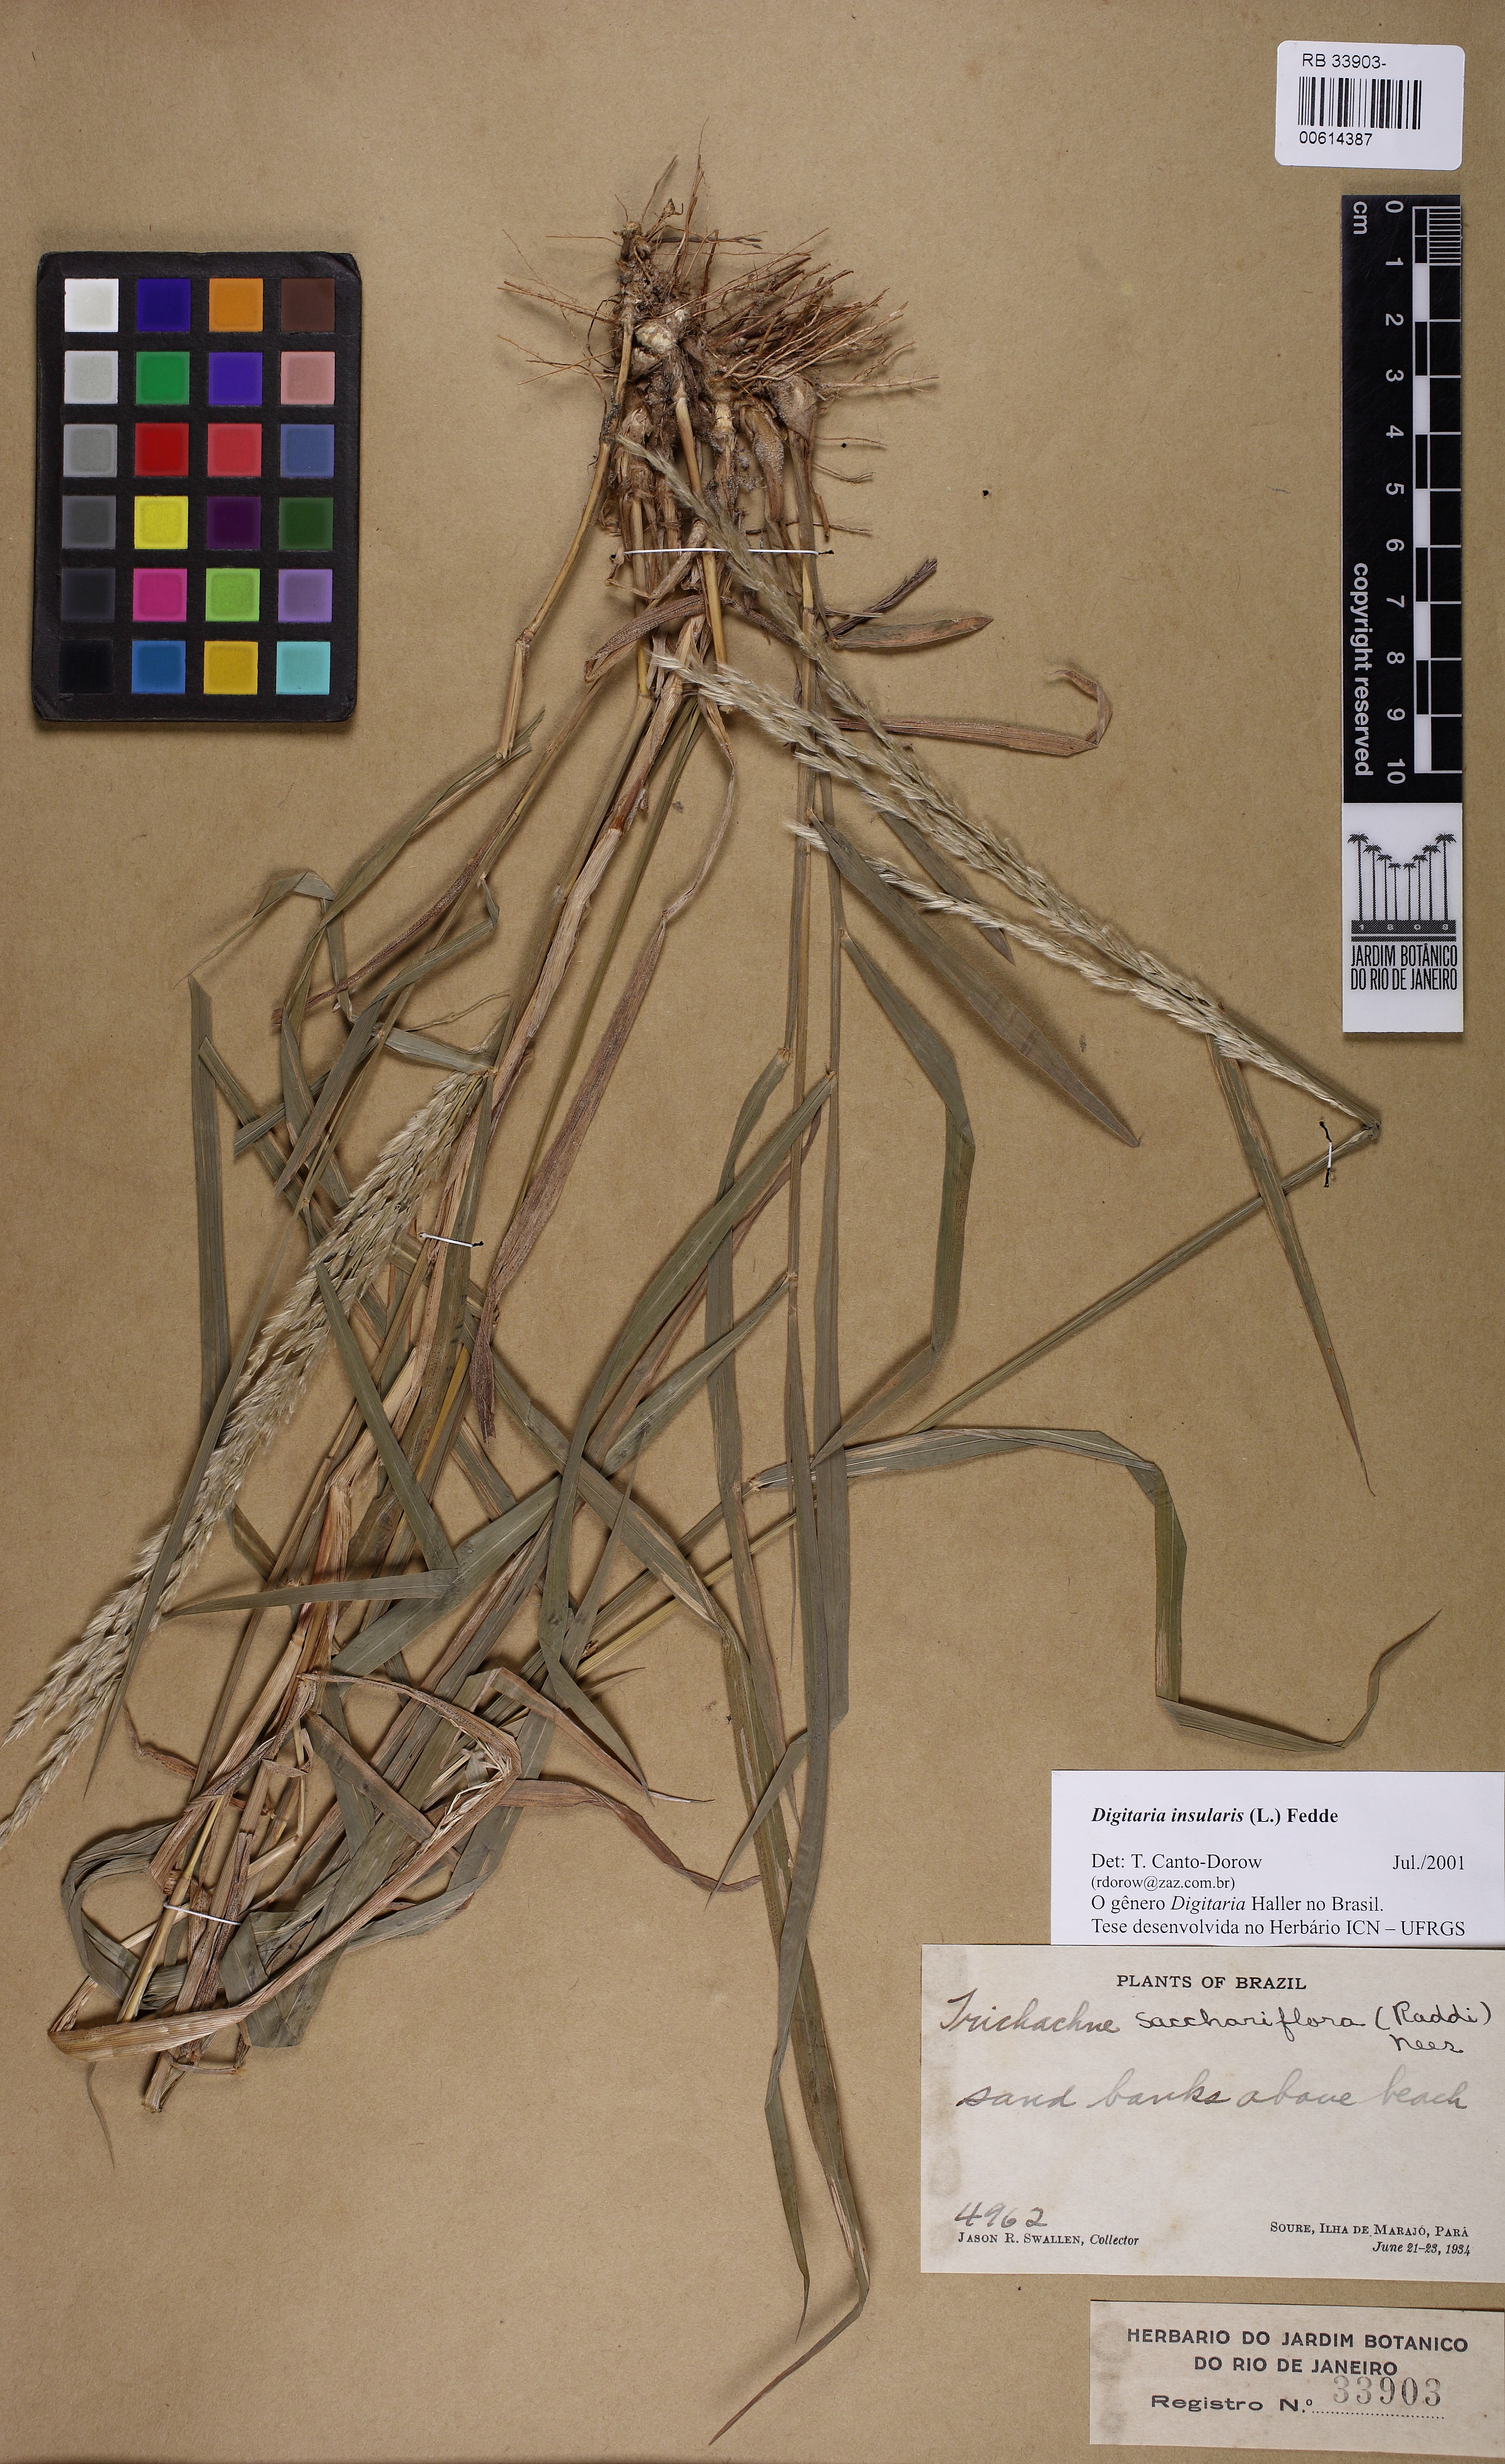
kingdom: Plantae
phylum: Tracheophyta
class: Liliopsida
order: Poales
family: Poaceae
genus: Digitaria
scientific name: Digitaria insularis
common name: Sourgrass
